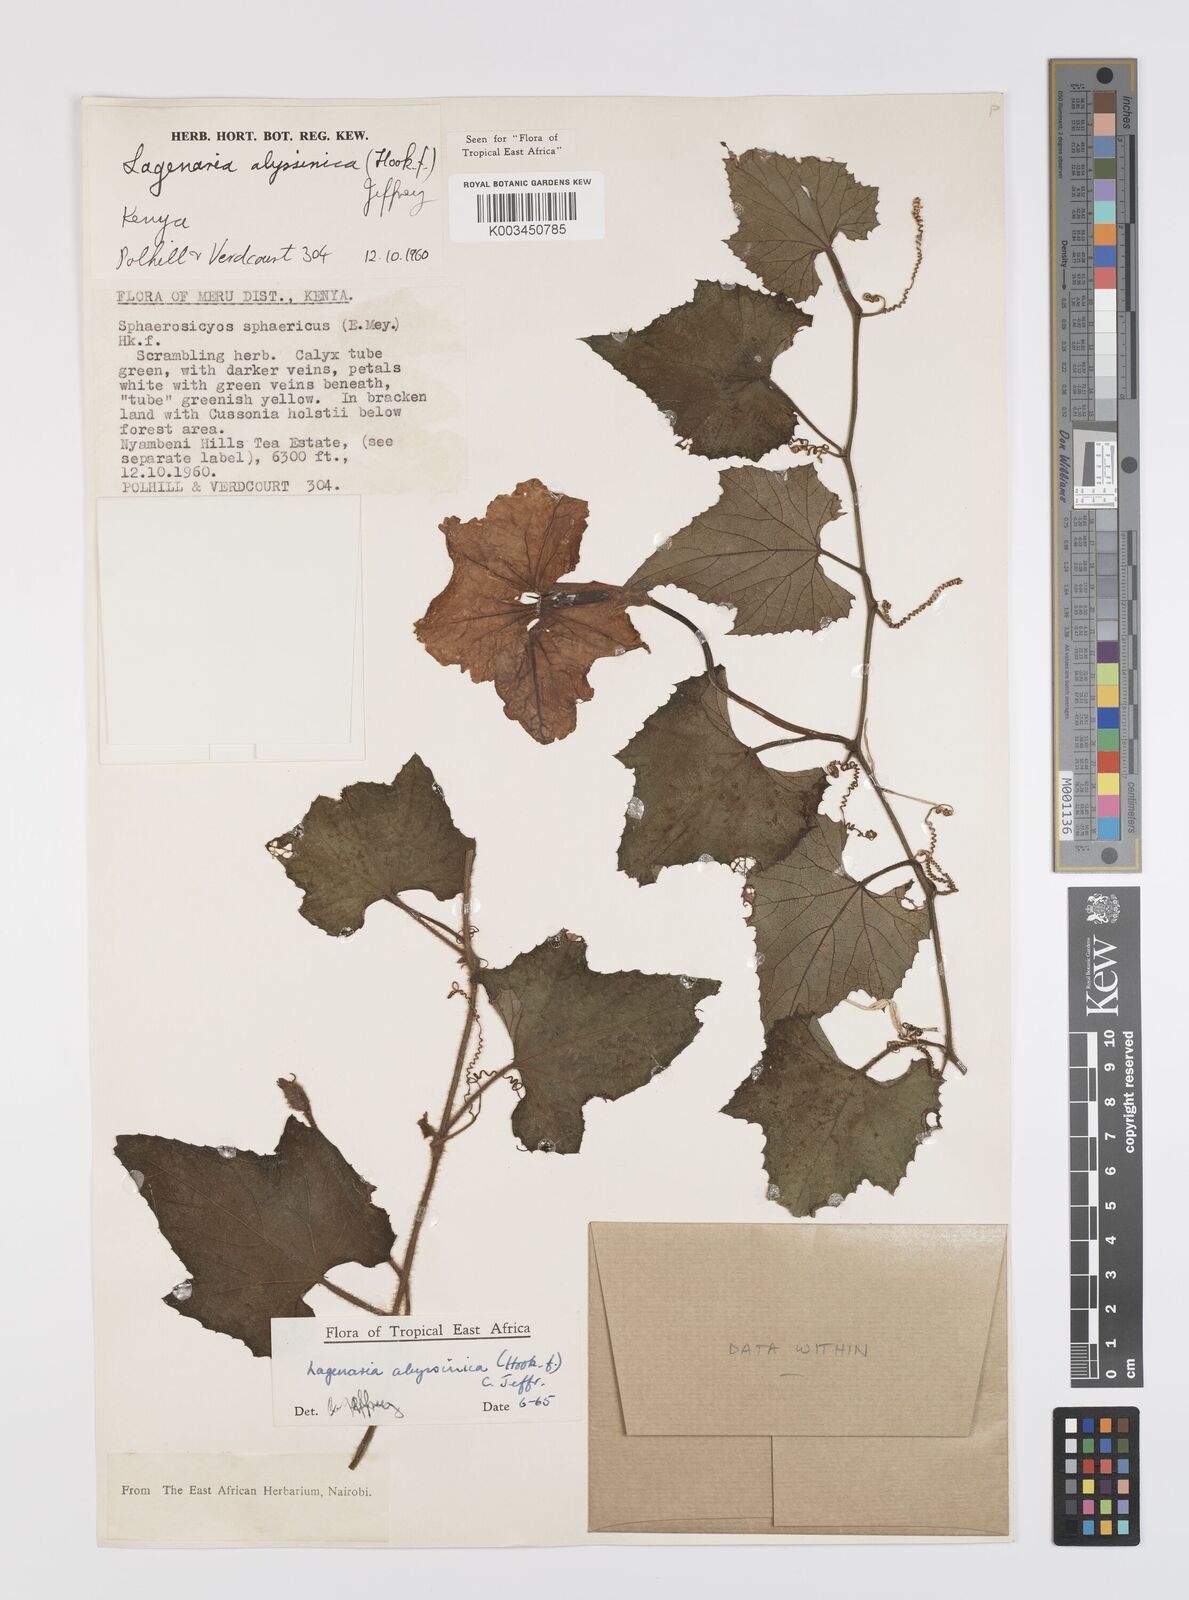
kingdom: Plantae
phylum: Tracheophyta
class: Magnoliopsida
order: Cucurbitales
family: Cucurbitaceae
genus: Lagenaria
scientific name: Lagenaria abyssinica
